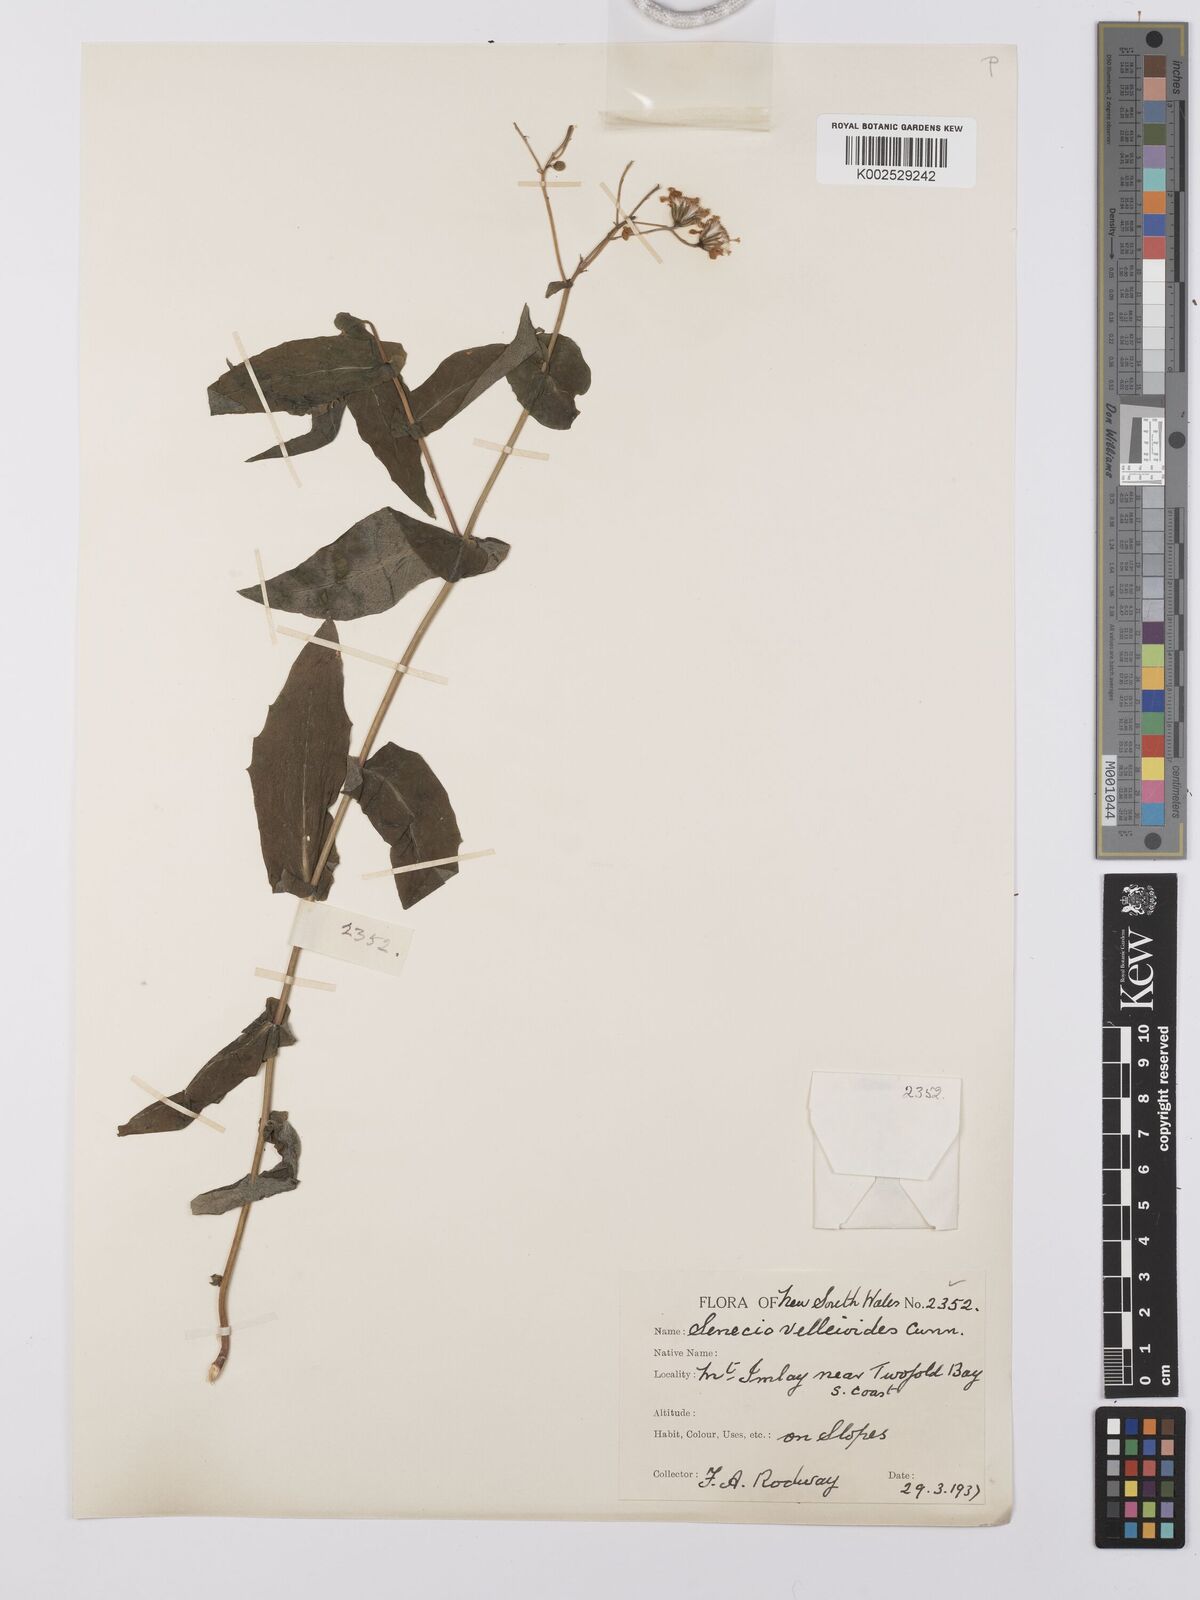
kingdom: Plantae
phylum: Tracheophyta
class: Magnoliopsida
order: Asterales
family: Asteraceae
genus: Lordhowea
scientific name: Lordhowea velleioides
